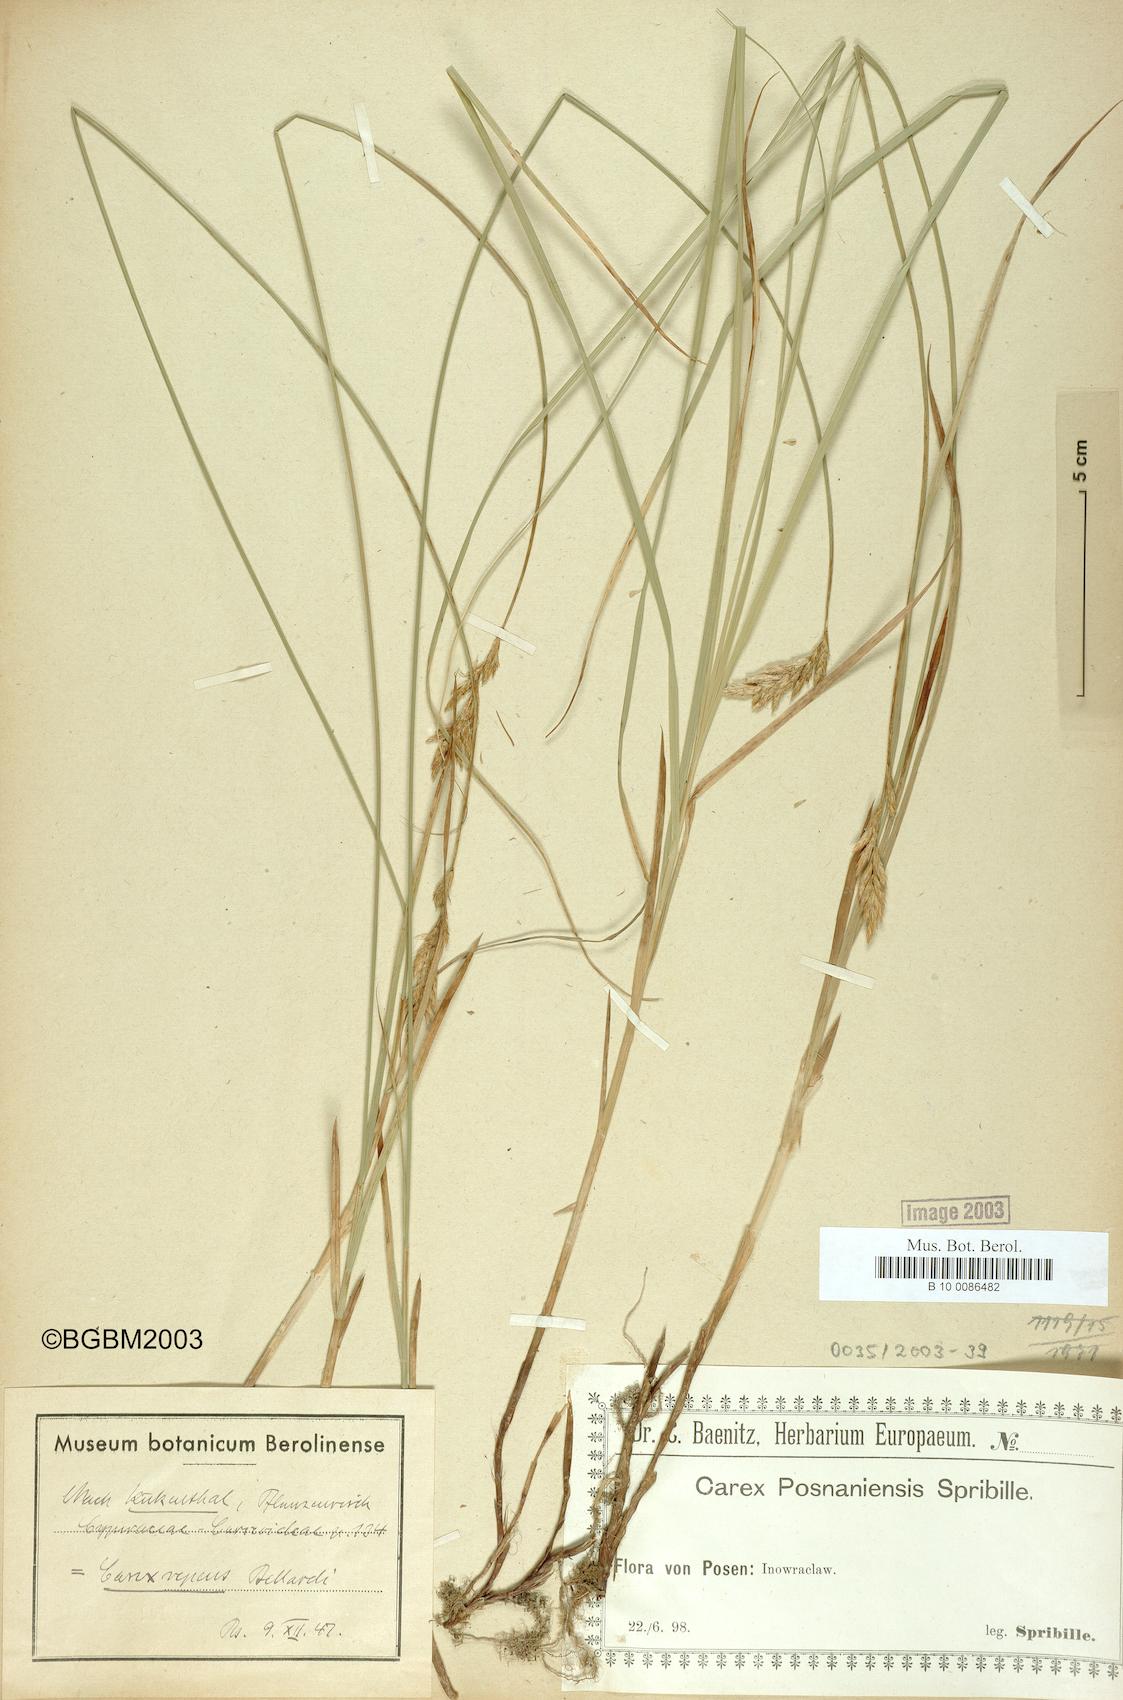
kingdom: Plantae
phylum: Tracheophyta
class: Liliopsida
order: Poales
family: Cyperaceae
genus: Carex
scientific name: Carex repens
